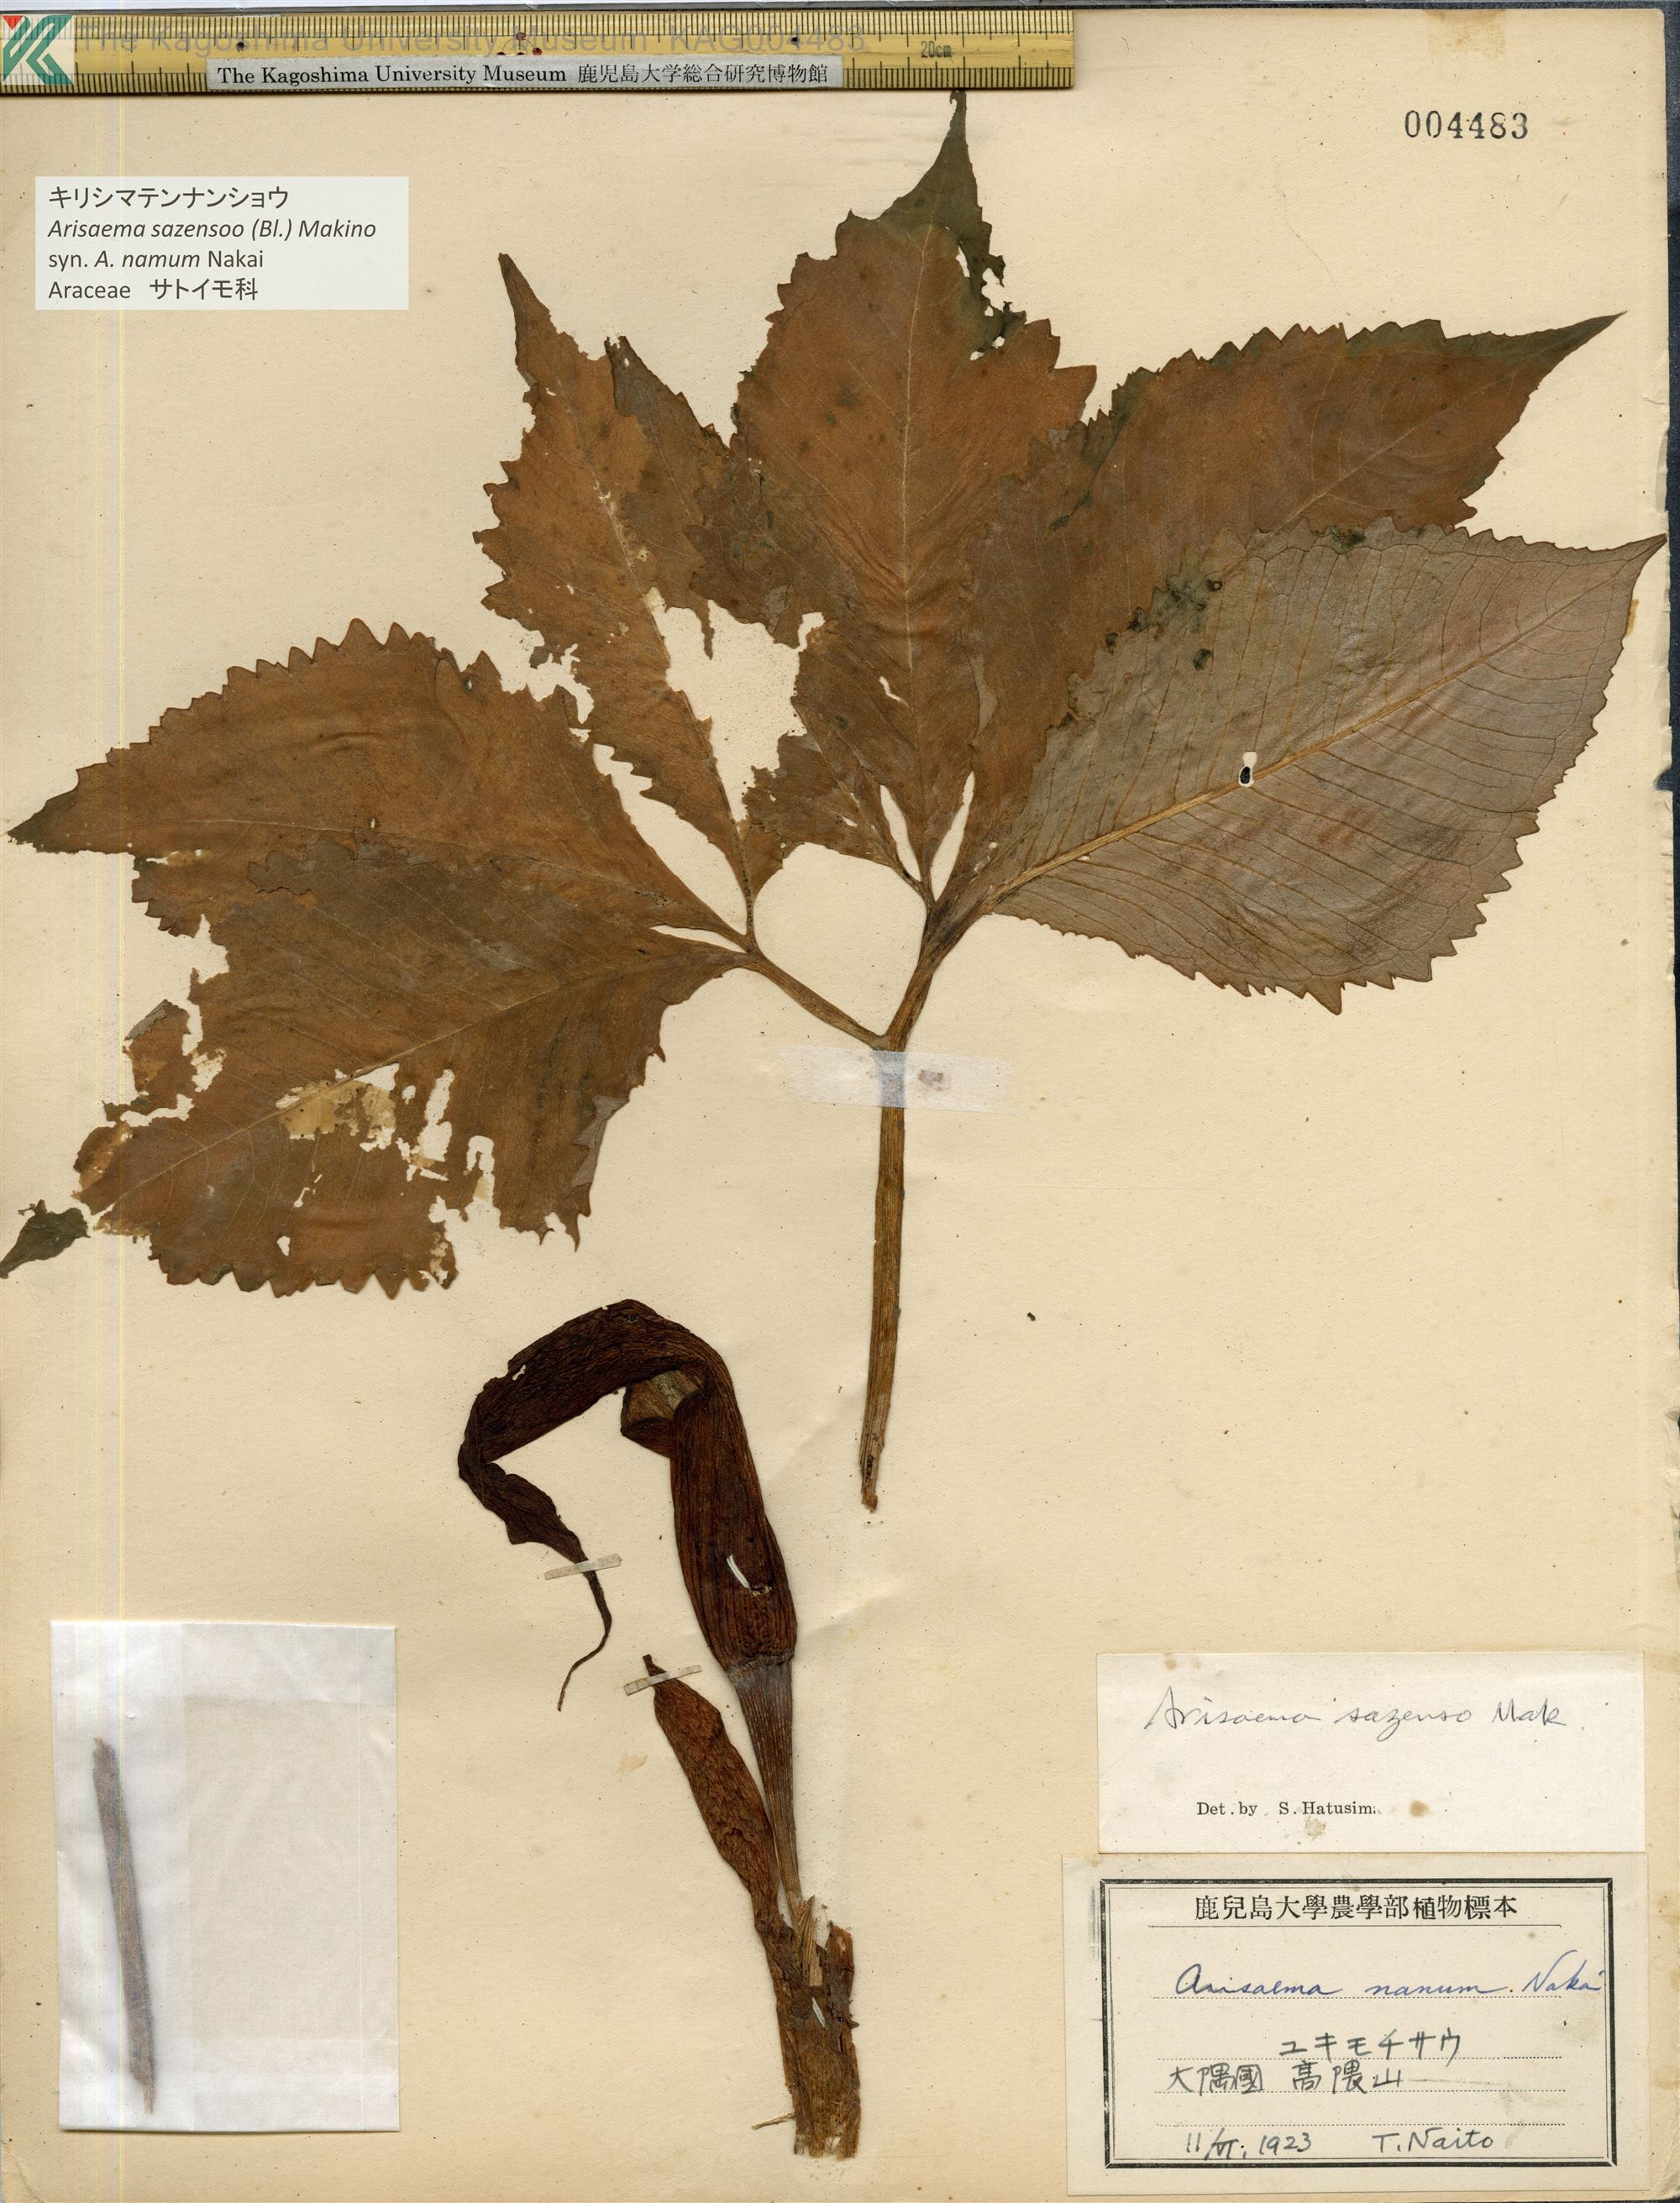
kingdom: Plantae
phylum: Tracheophyta
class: Liliopsida
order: Alismatales
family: Araceae
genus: Arisaema
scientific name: Arisaema sazensoo
